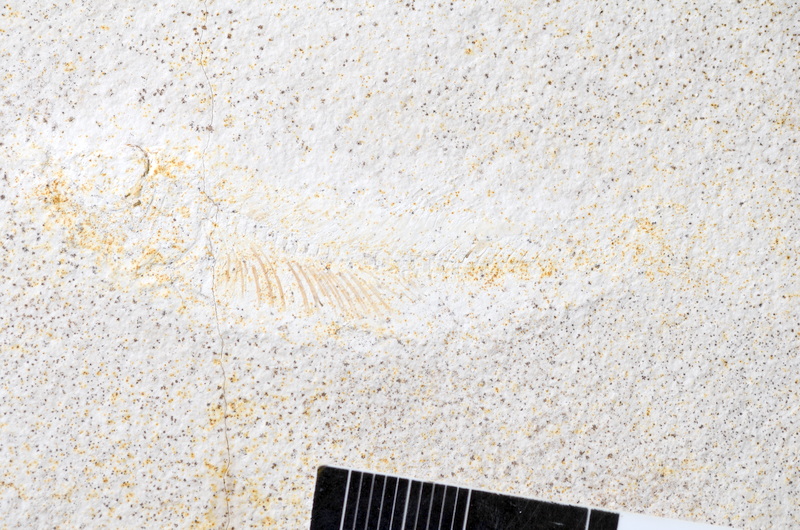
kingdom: Animalia
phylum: Chordata
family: Ascalaboidae
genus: Ebertichthys
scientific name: Ebertichthys ettlingensis
